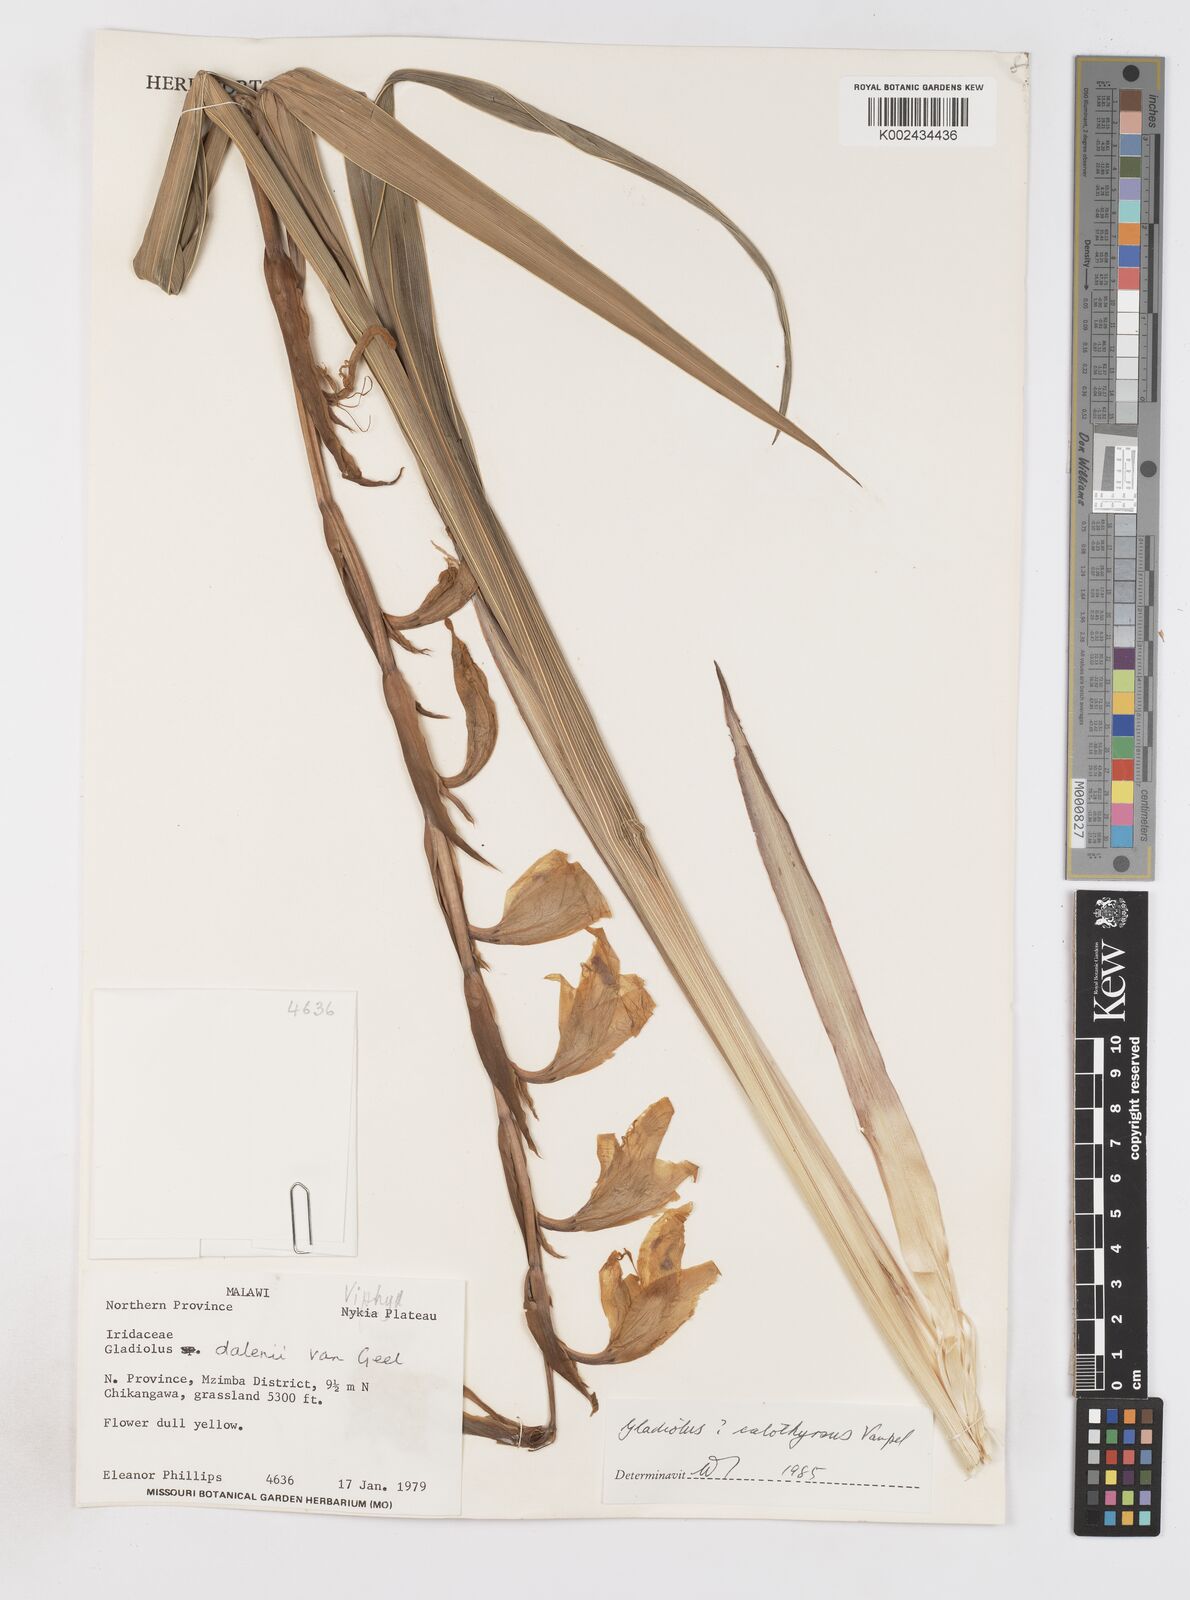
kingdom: Plantae
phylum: Tracheophyta
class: Liliopsida
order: Asparagales
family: Iridaceae
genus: Gladiolus
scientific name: Gladiolus dalenii
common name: Cornflag
